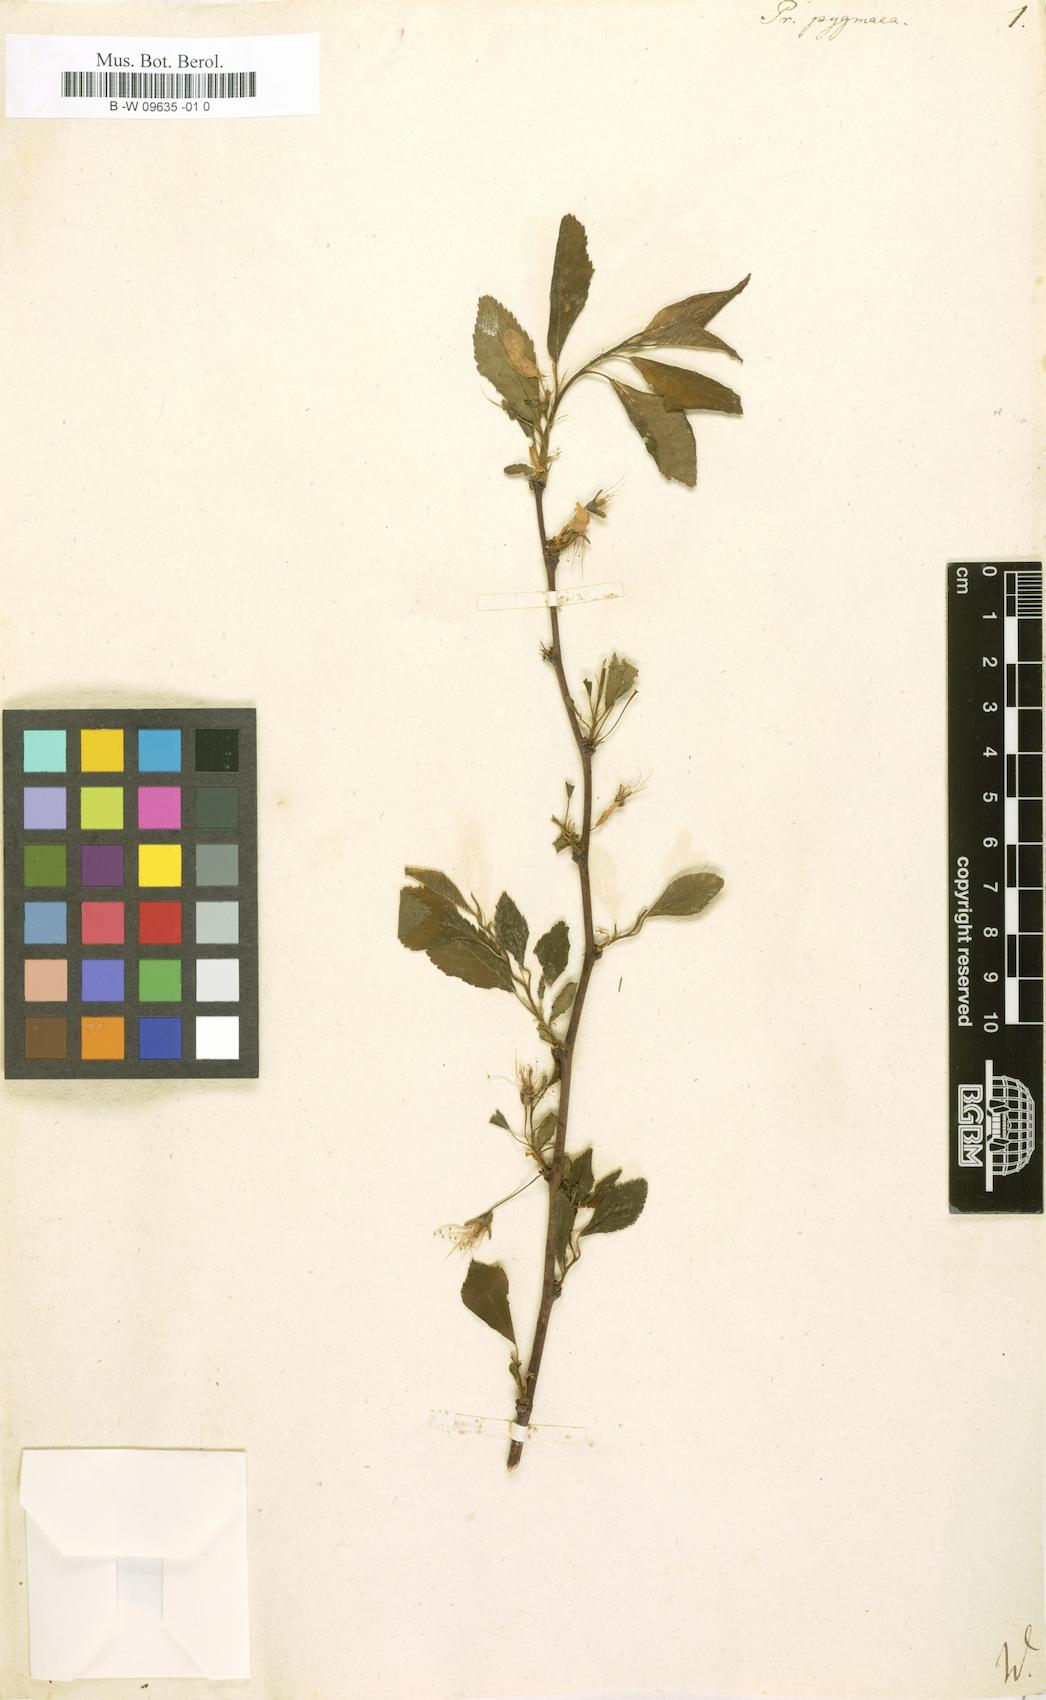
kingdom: Plantae
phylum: Tracheophyta
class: Magnoliopsida
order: Rosales
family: Rosaceae
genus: Prunus
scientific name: Prunus maritima
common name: Beach plum
